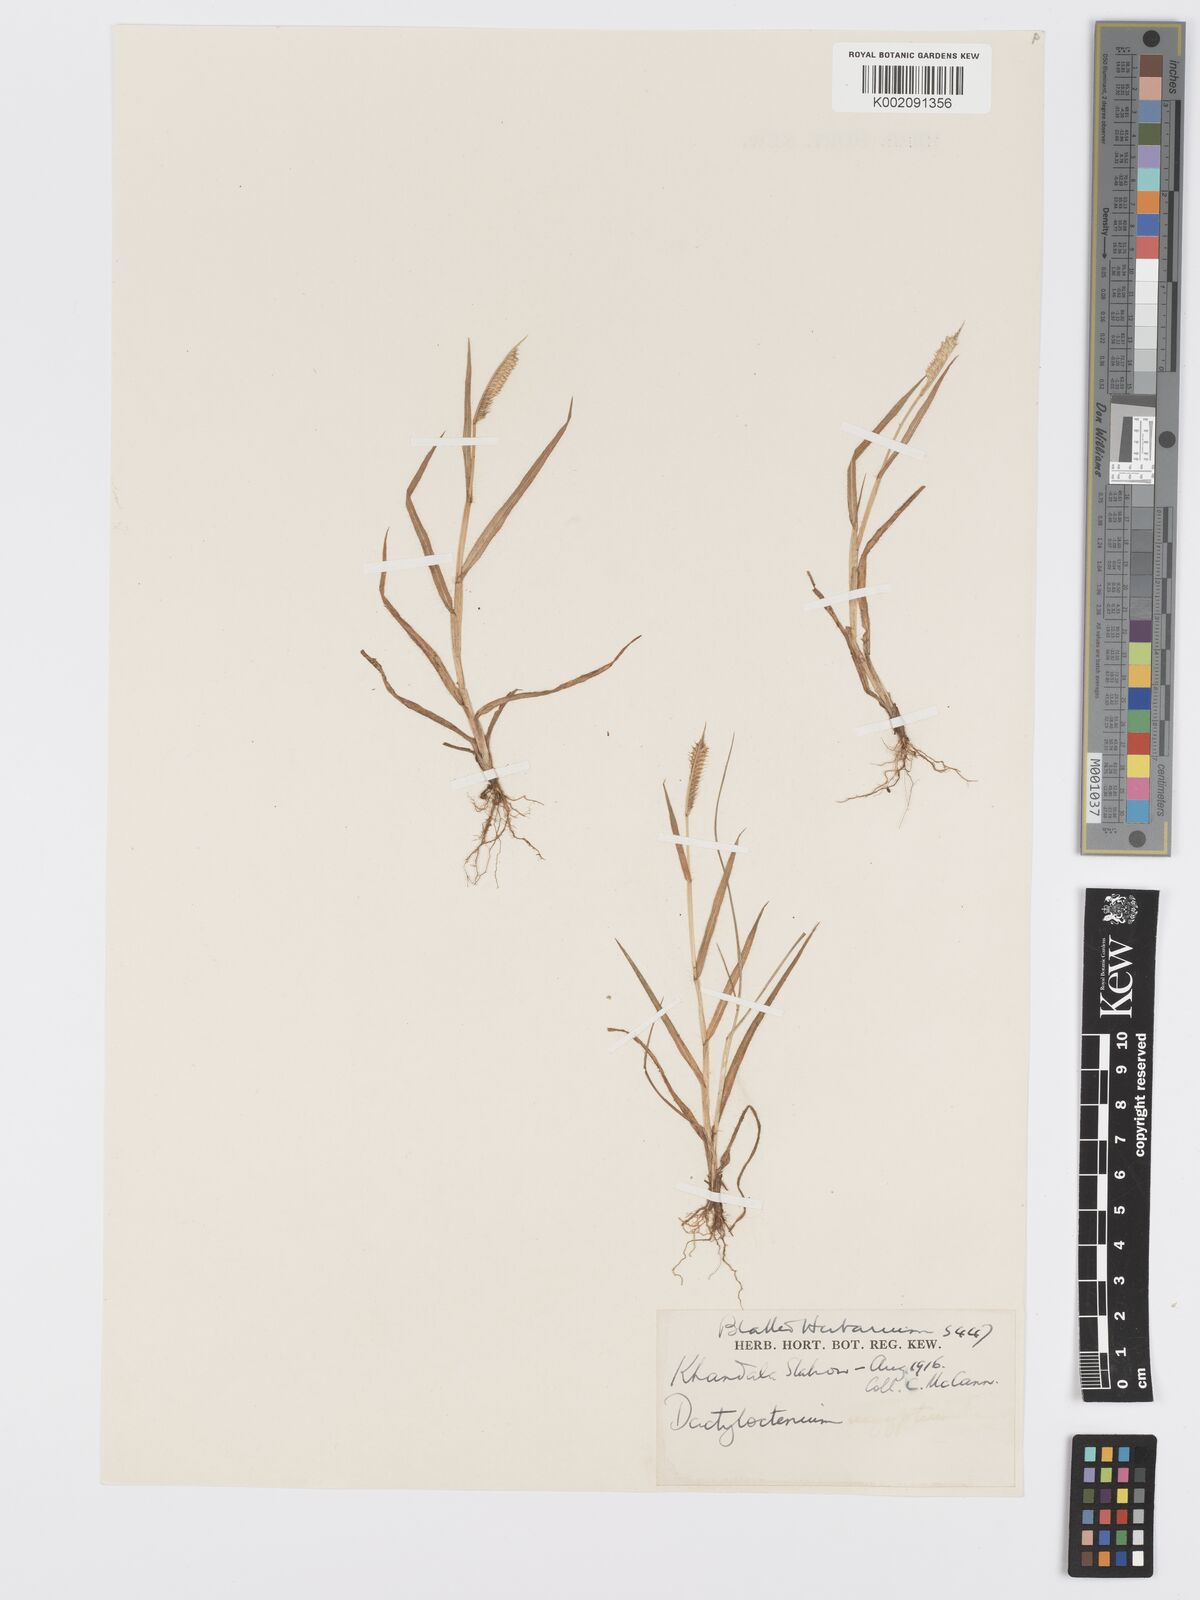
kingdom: Plantae
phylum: Tracheophyta
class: Liliopsida
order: Poales
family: Poaceae
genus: Dactyloctenium
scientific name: Dactyloctenium aristatum
